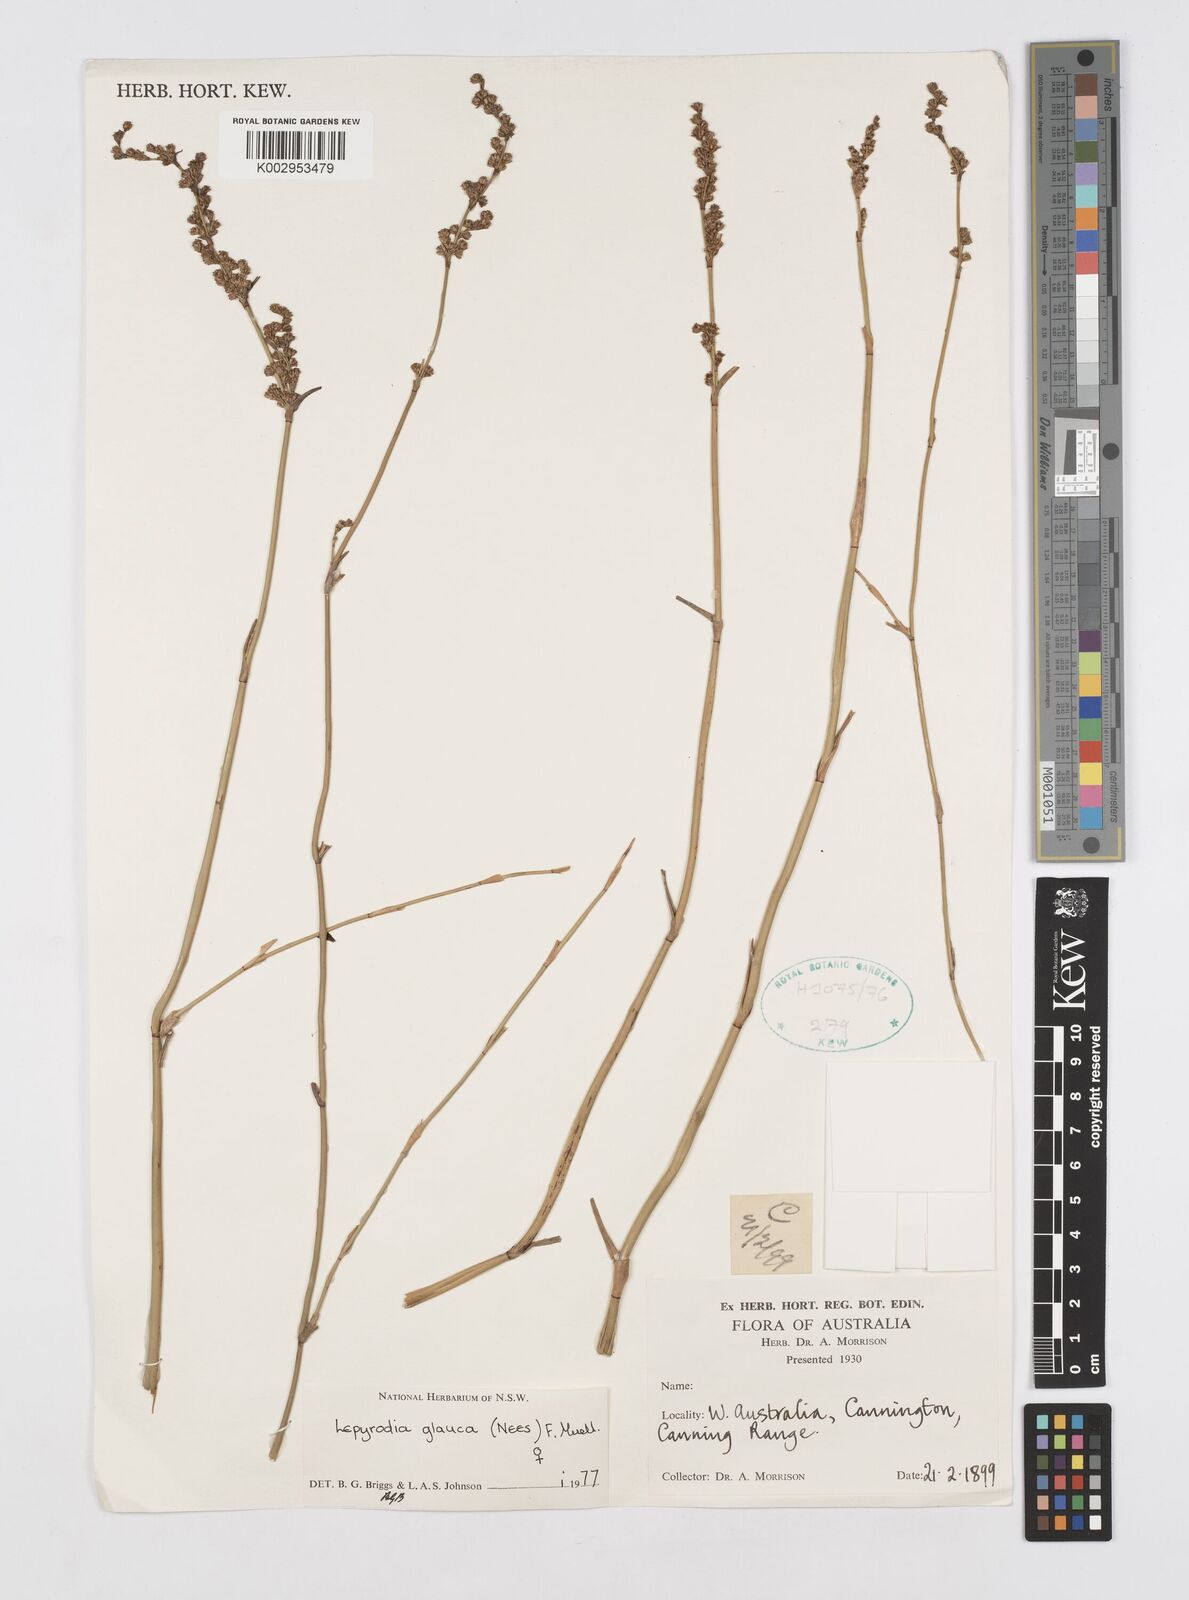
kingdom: Plantae
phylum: Tracheophyta
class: Liliopsida
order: Poales
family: Restionaceae
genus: Lepyrodia
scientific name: Lepyrodia glauca
